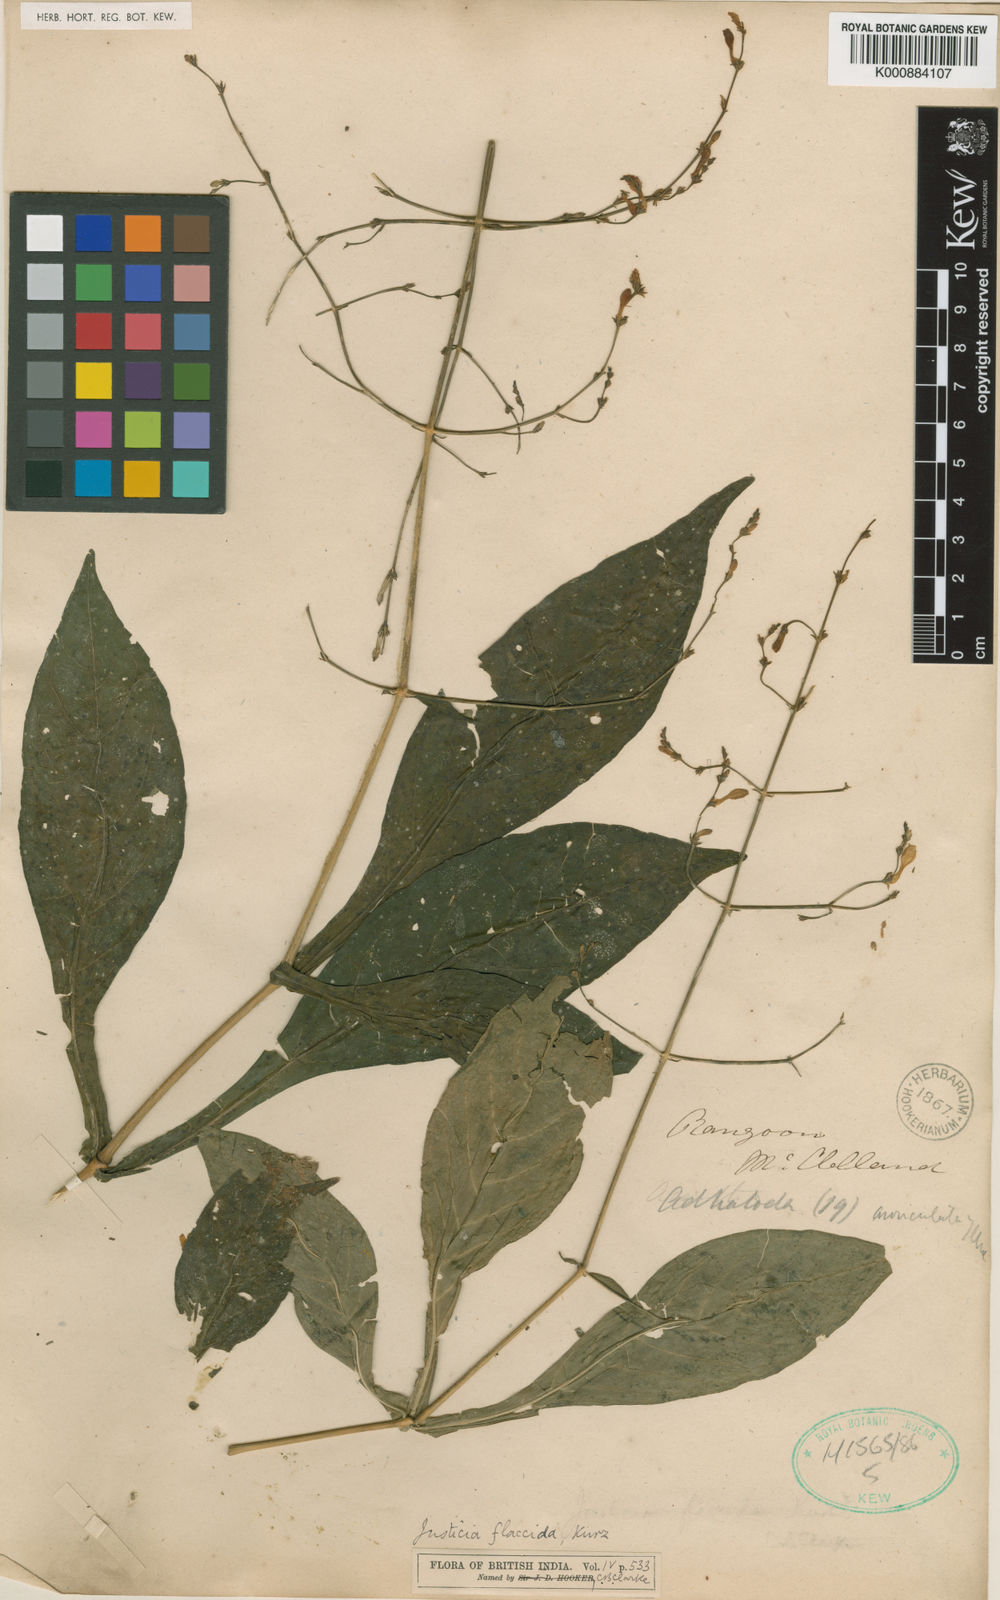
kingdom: Plantae
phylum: Tracheophyta
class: Magnoliopsida
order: Lamiales
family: Acanthaceae
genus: Justicia
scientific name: Justicia flaccida
